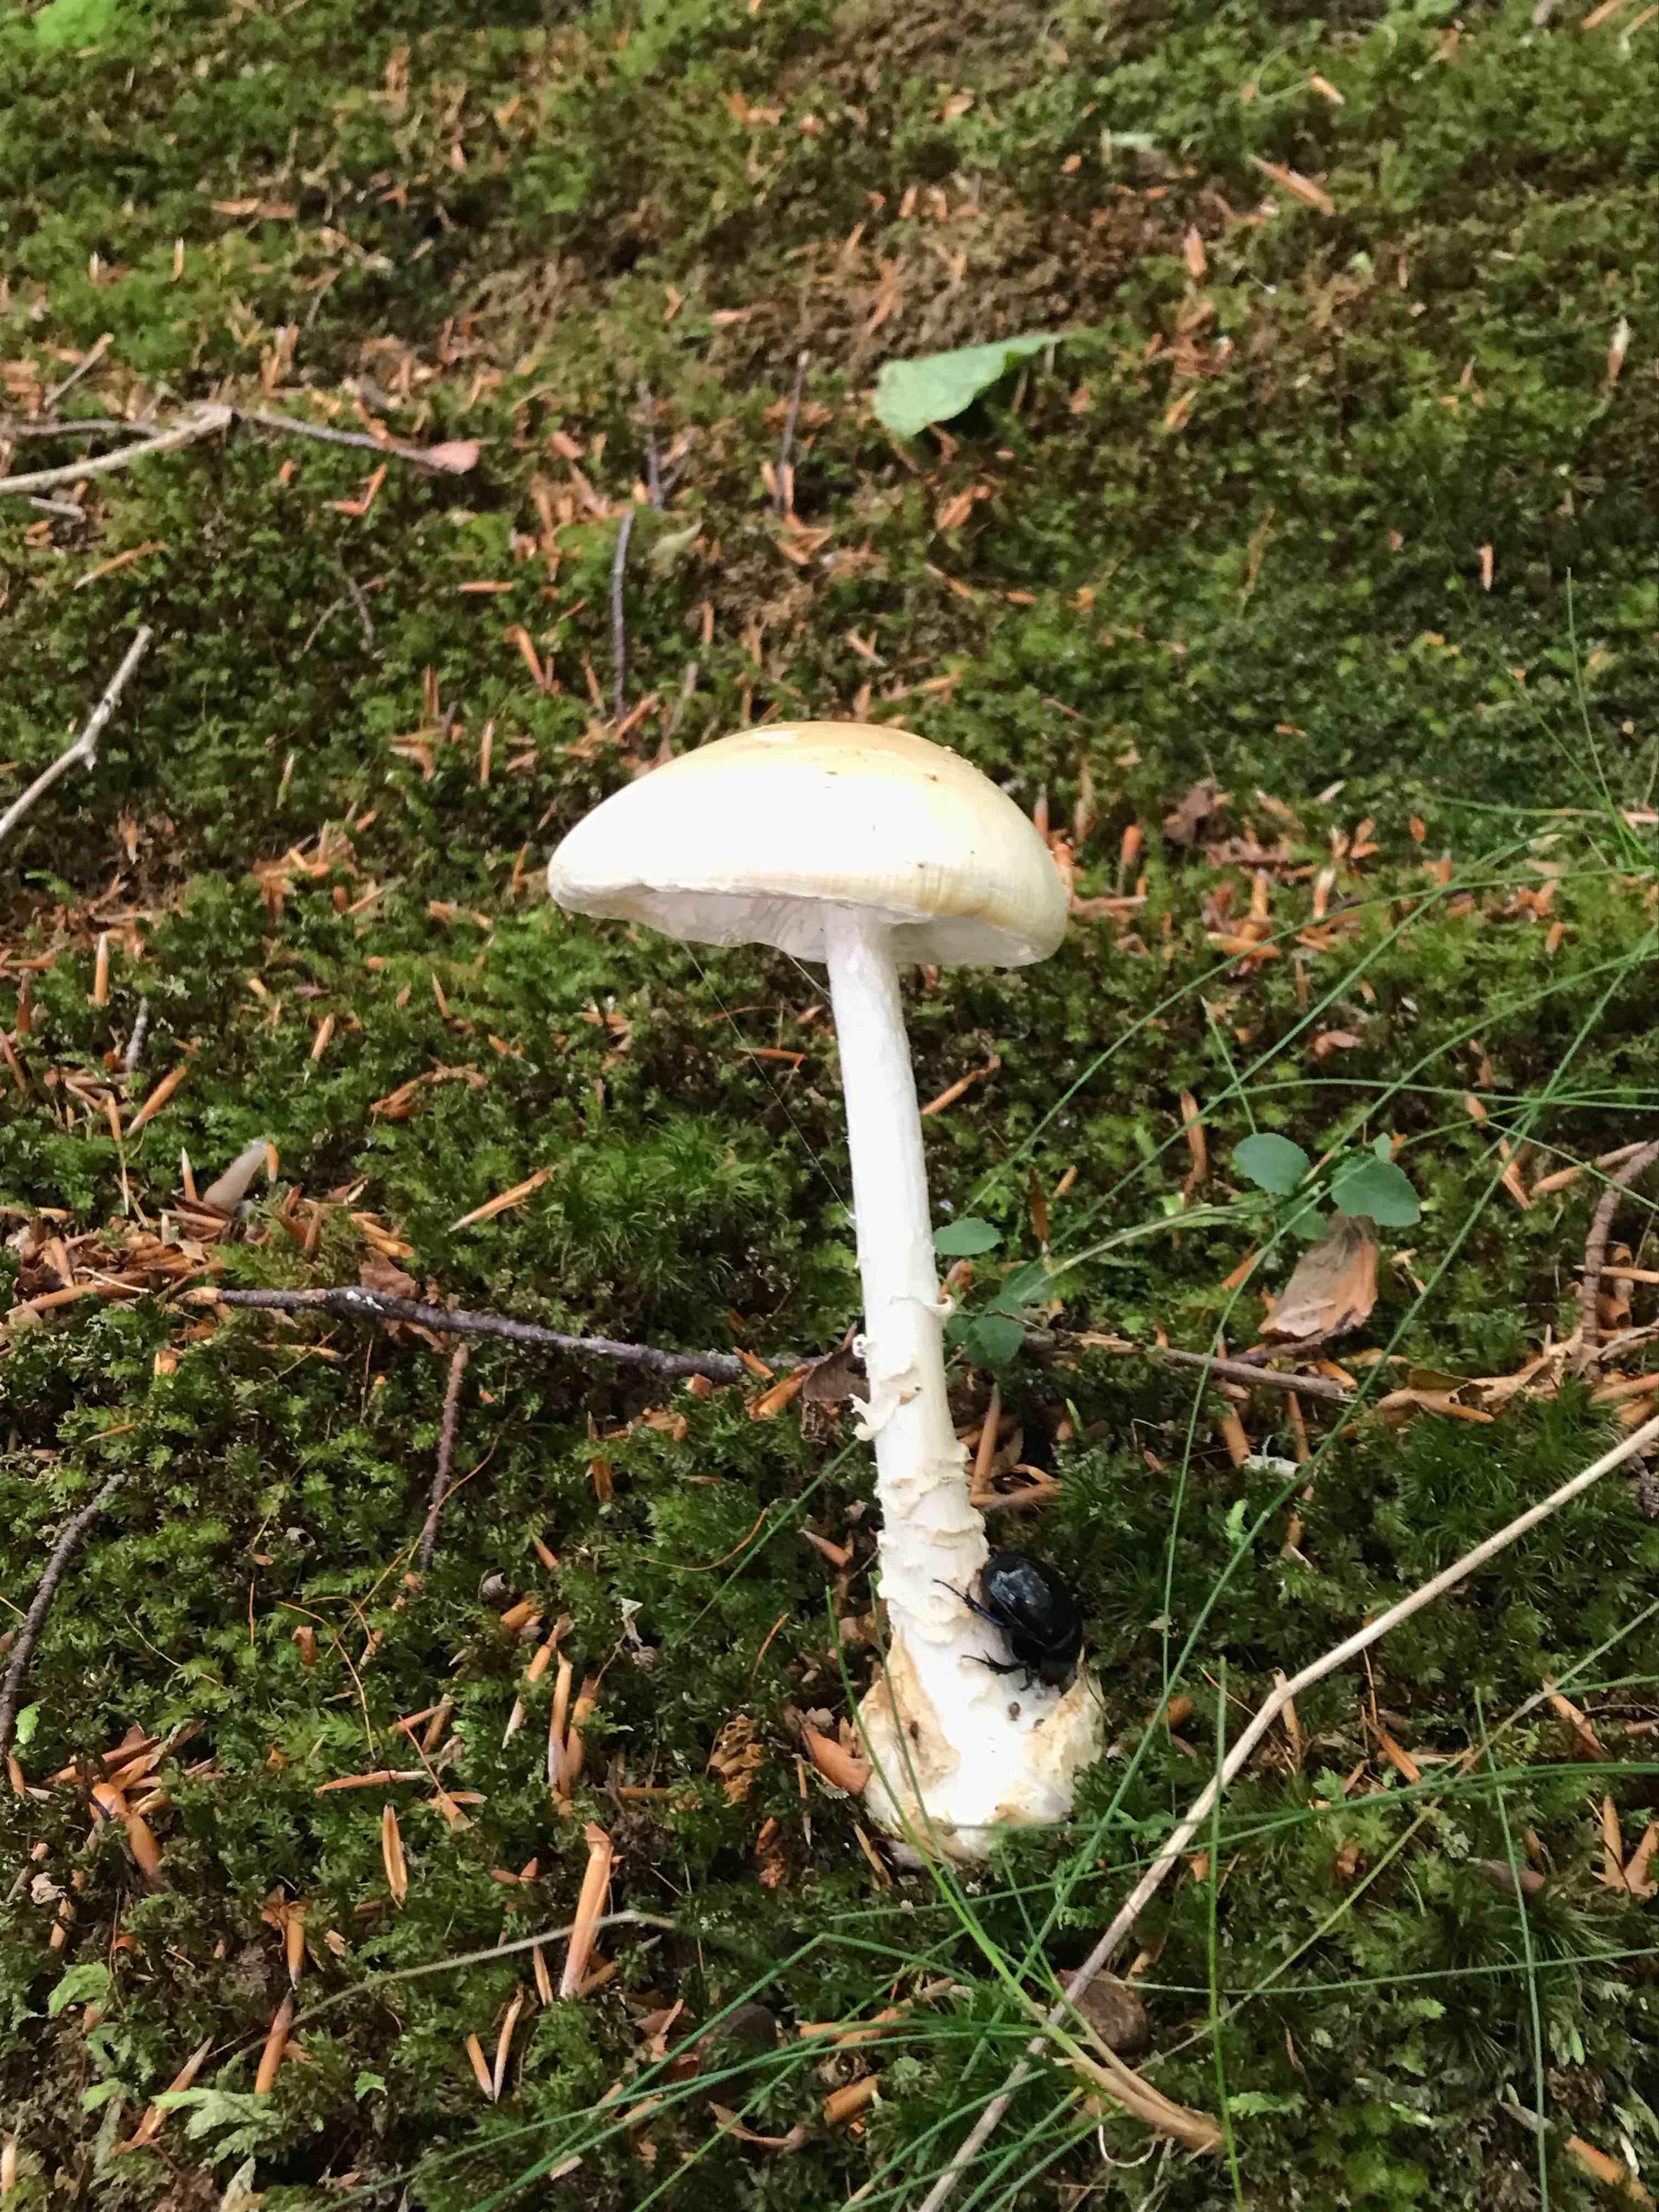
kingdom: Fungi
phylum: Basidiomycota
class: Agaricomycetes
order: Agaricales
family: Amanitaceae
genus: Amanita
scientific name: Amanita citrina
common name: kugleknoldet fluesvamp
